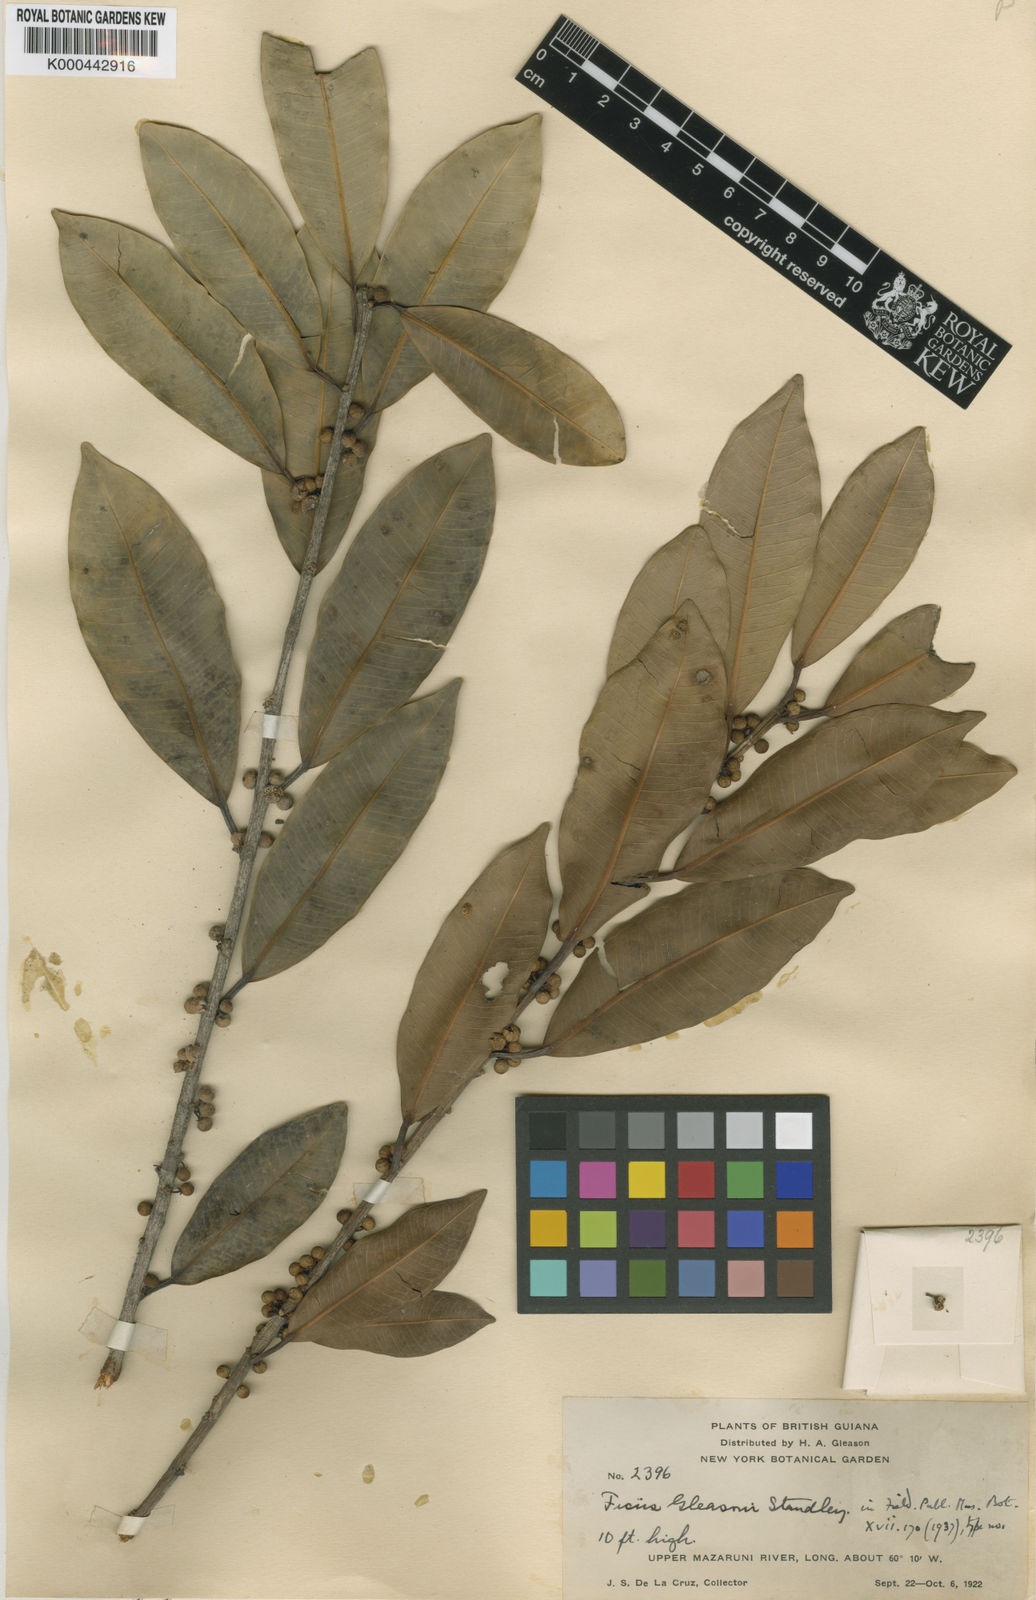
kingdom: Plantae
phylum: Tracheophyta
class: Magnoliopsida
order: Rosales
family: Moraceae
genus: Ficus
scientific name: Ficus mathewsii
